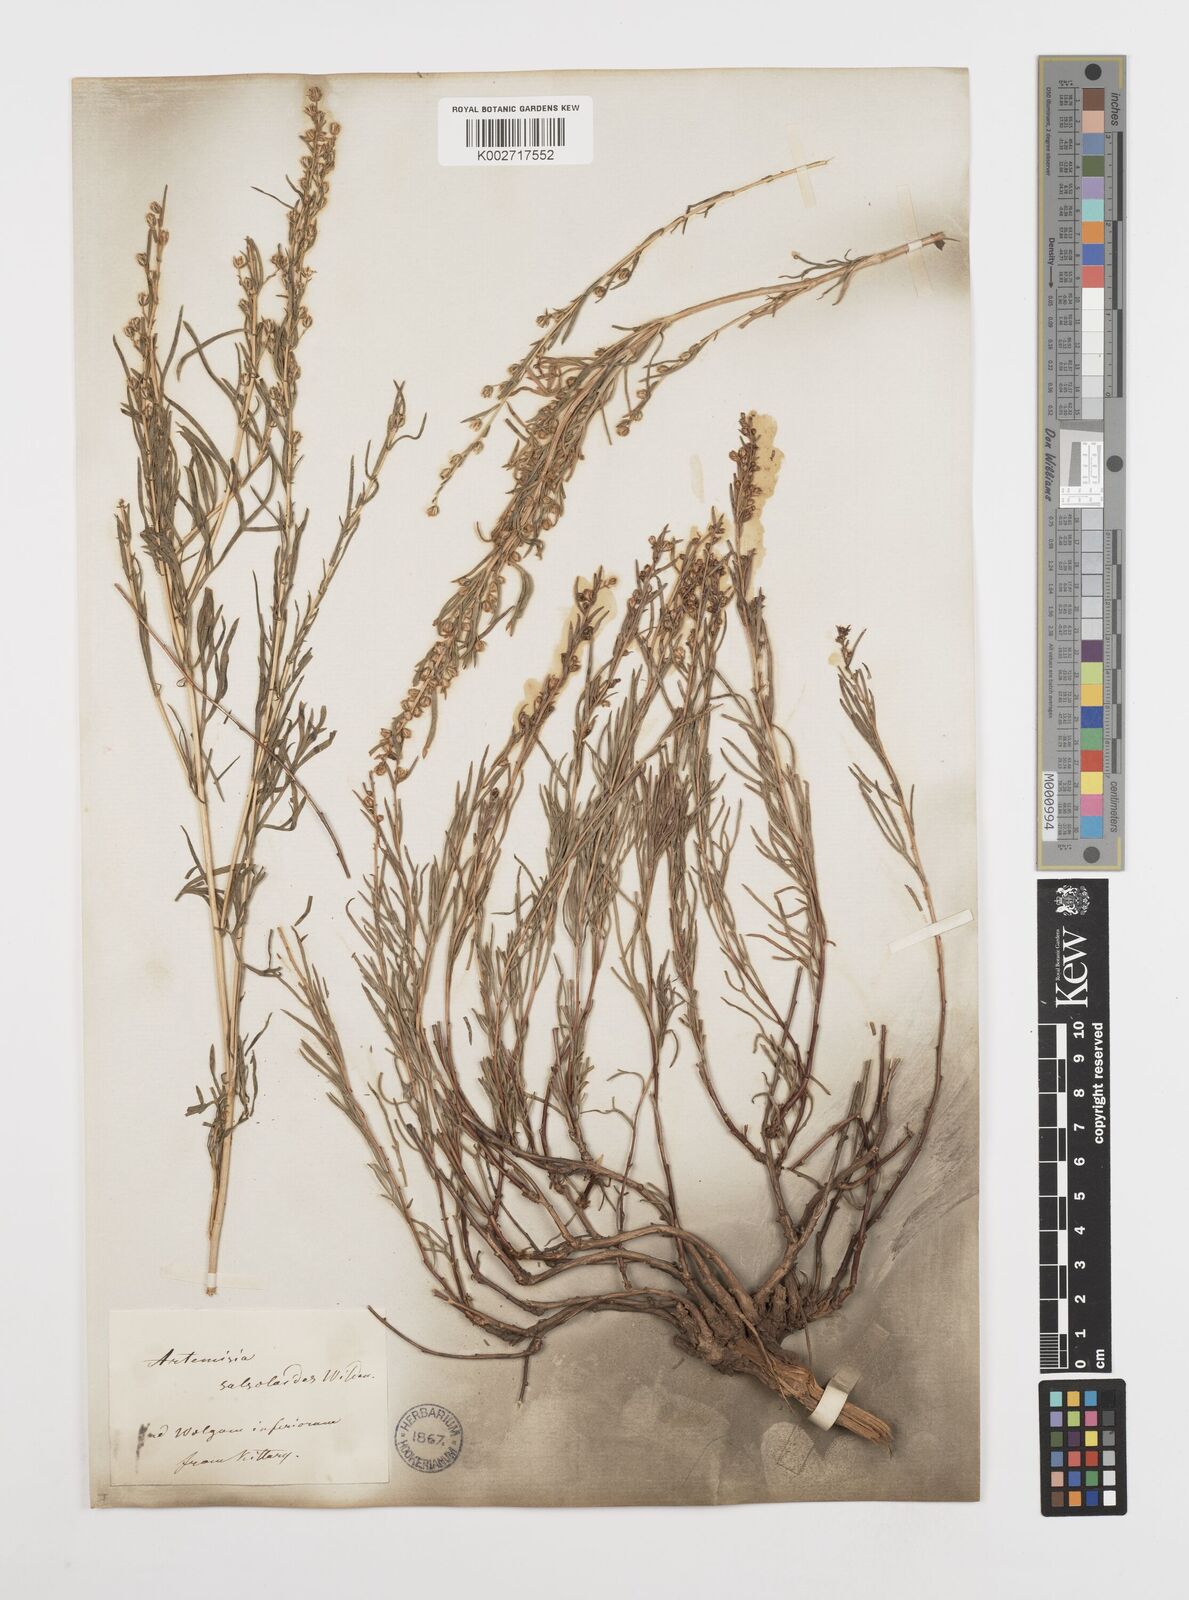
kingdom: Plantae
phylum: Tracheophyta
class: Magnoliopsida
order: Asterales
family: Asteraceae
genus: Artemisia
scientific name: Artemisia salsoloides
